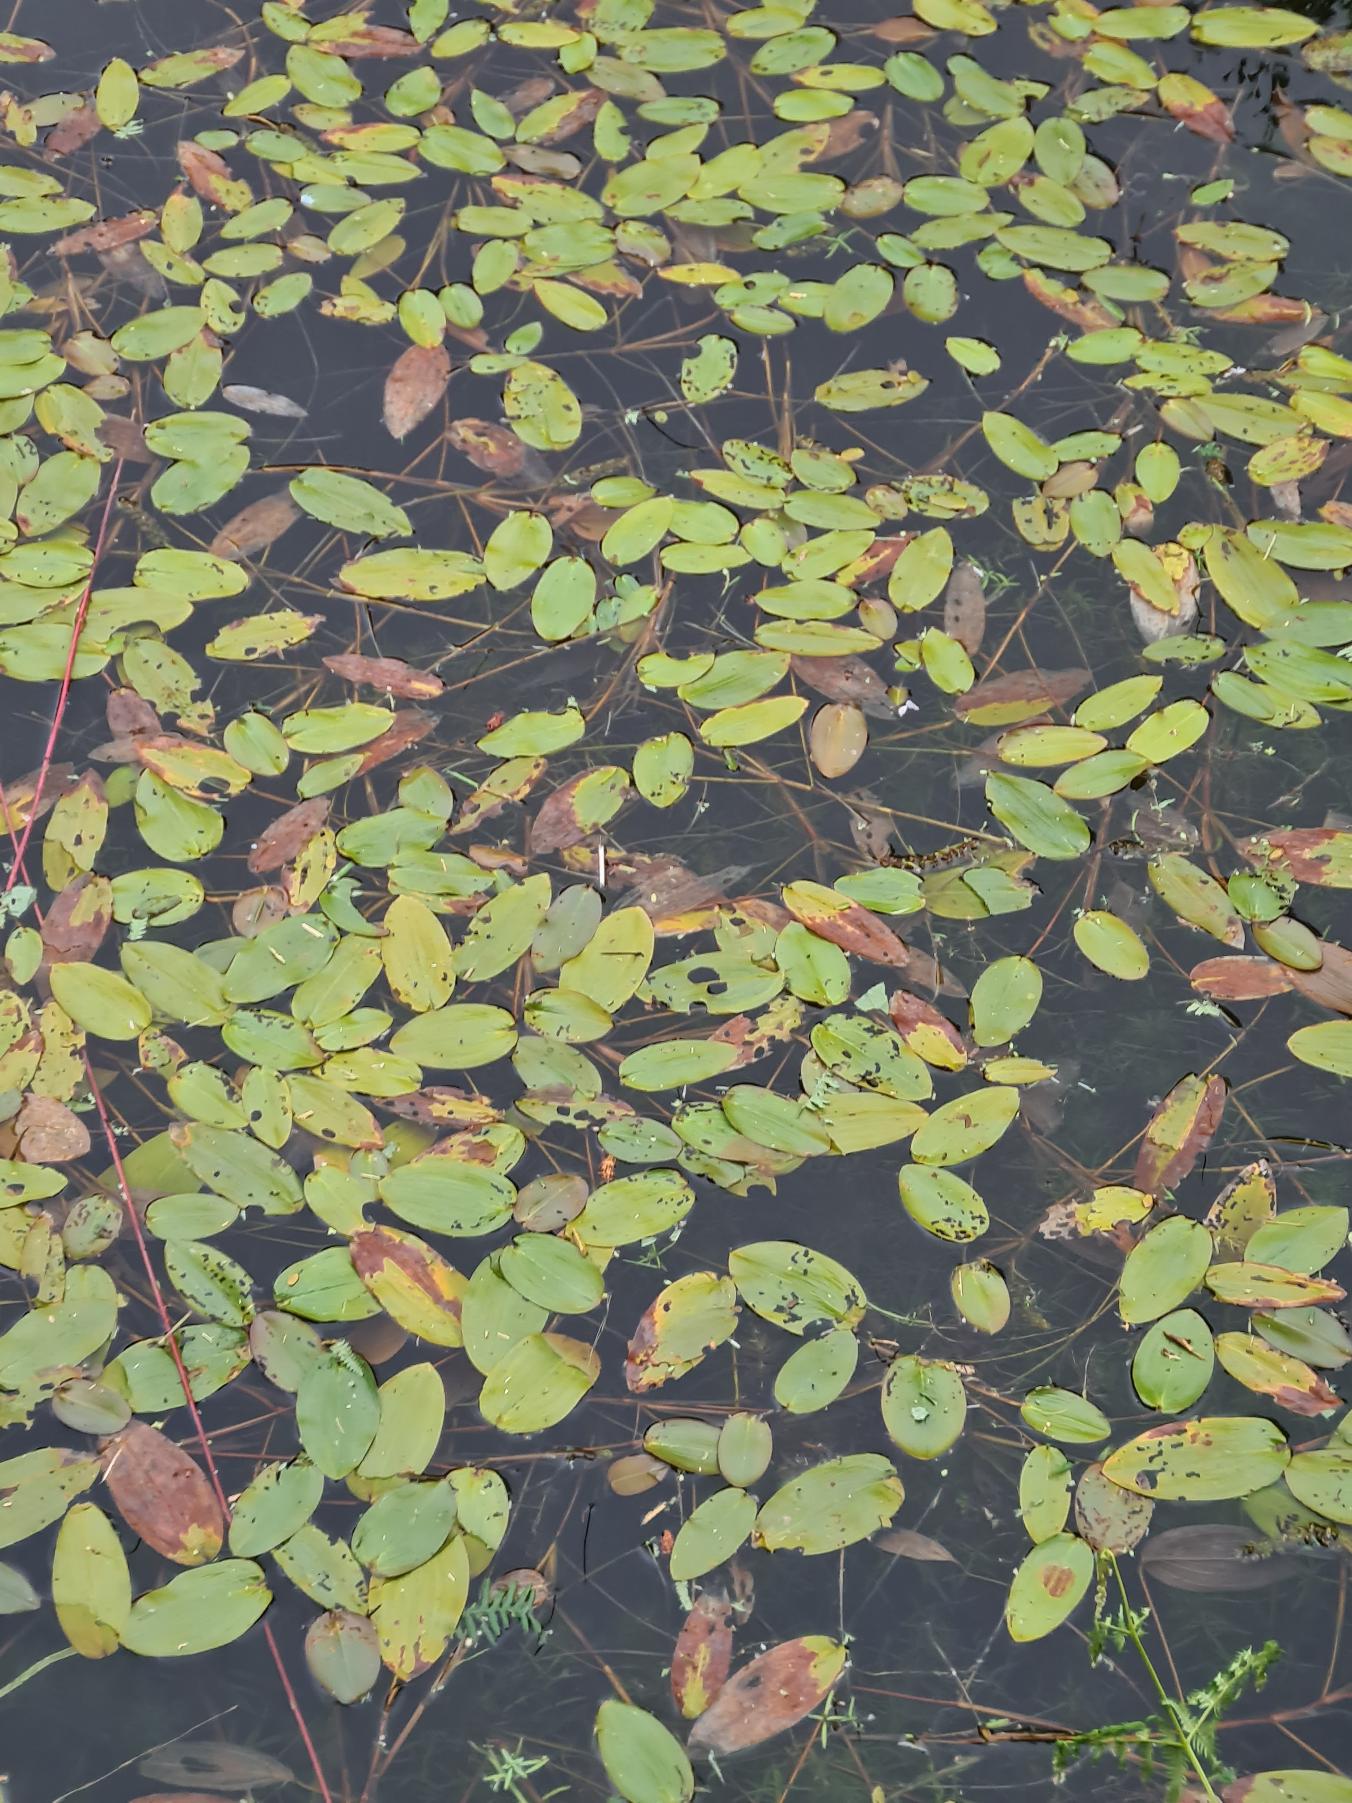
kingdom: Plantae
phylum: Tracheophyta
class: Liliopsida
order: Alismatales
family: Potamogetonaceae
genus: Potamogeton
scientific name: Potamogeton natans
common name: Svømmende vandaks
